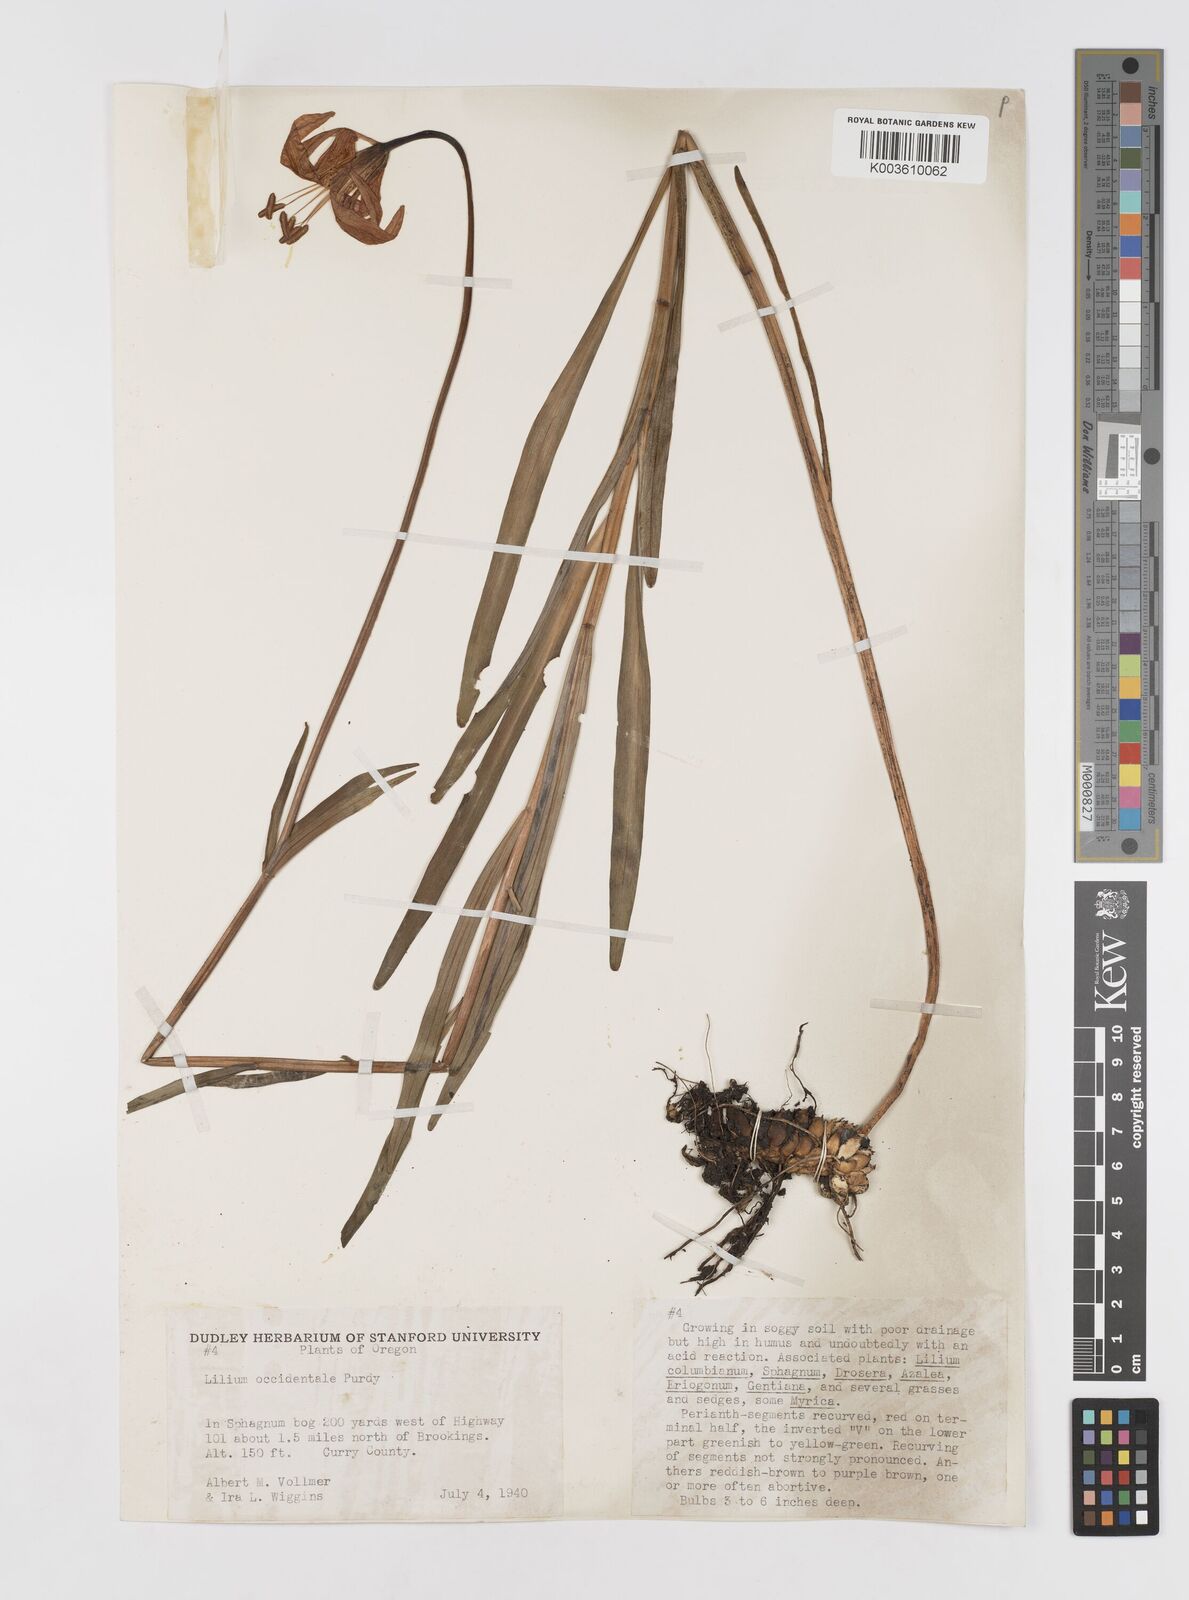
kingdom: Plantae
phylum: Tracheophyta
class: Liliopsida
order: Liliales
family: Liliaceae
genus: Lilium
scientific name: Lilium occidentale
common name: Eureka lily
